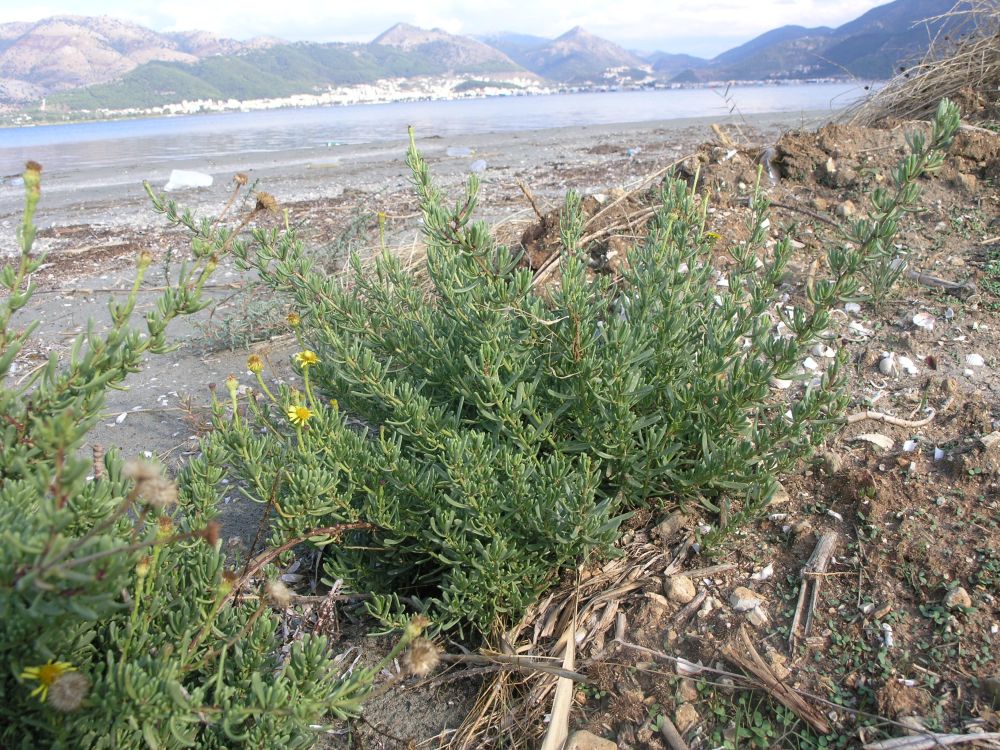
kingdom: Plantae
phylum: Tracheophyta
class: Magnoliopsida
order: Asterales
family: Asteraceae
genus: Limbarda
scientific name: Limbarda crithmoides
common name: Golden samphire
